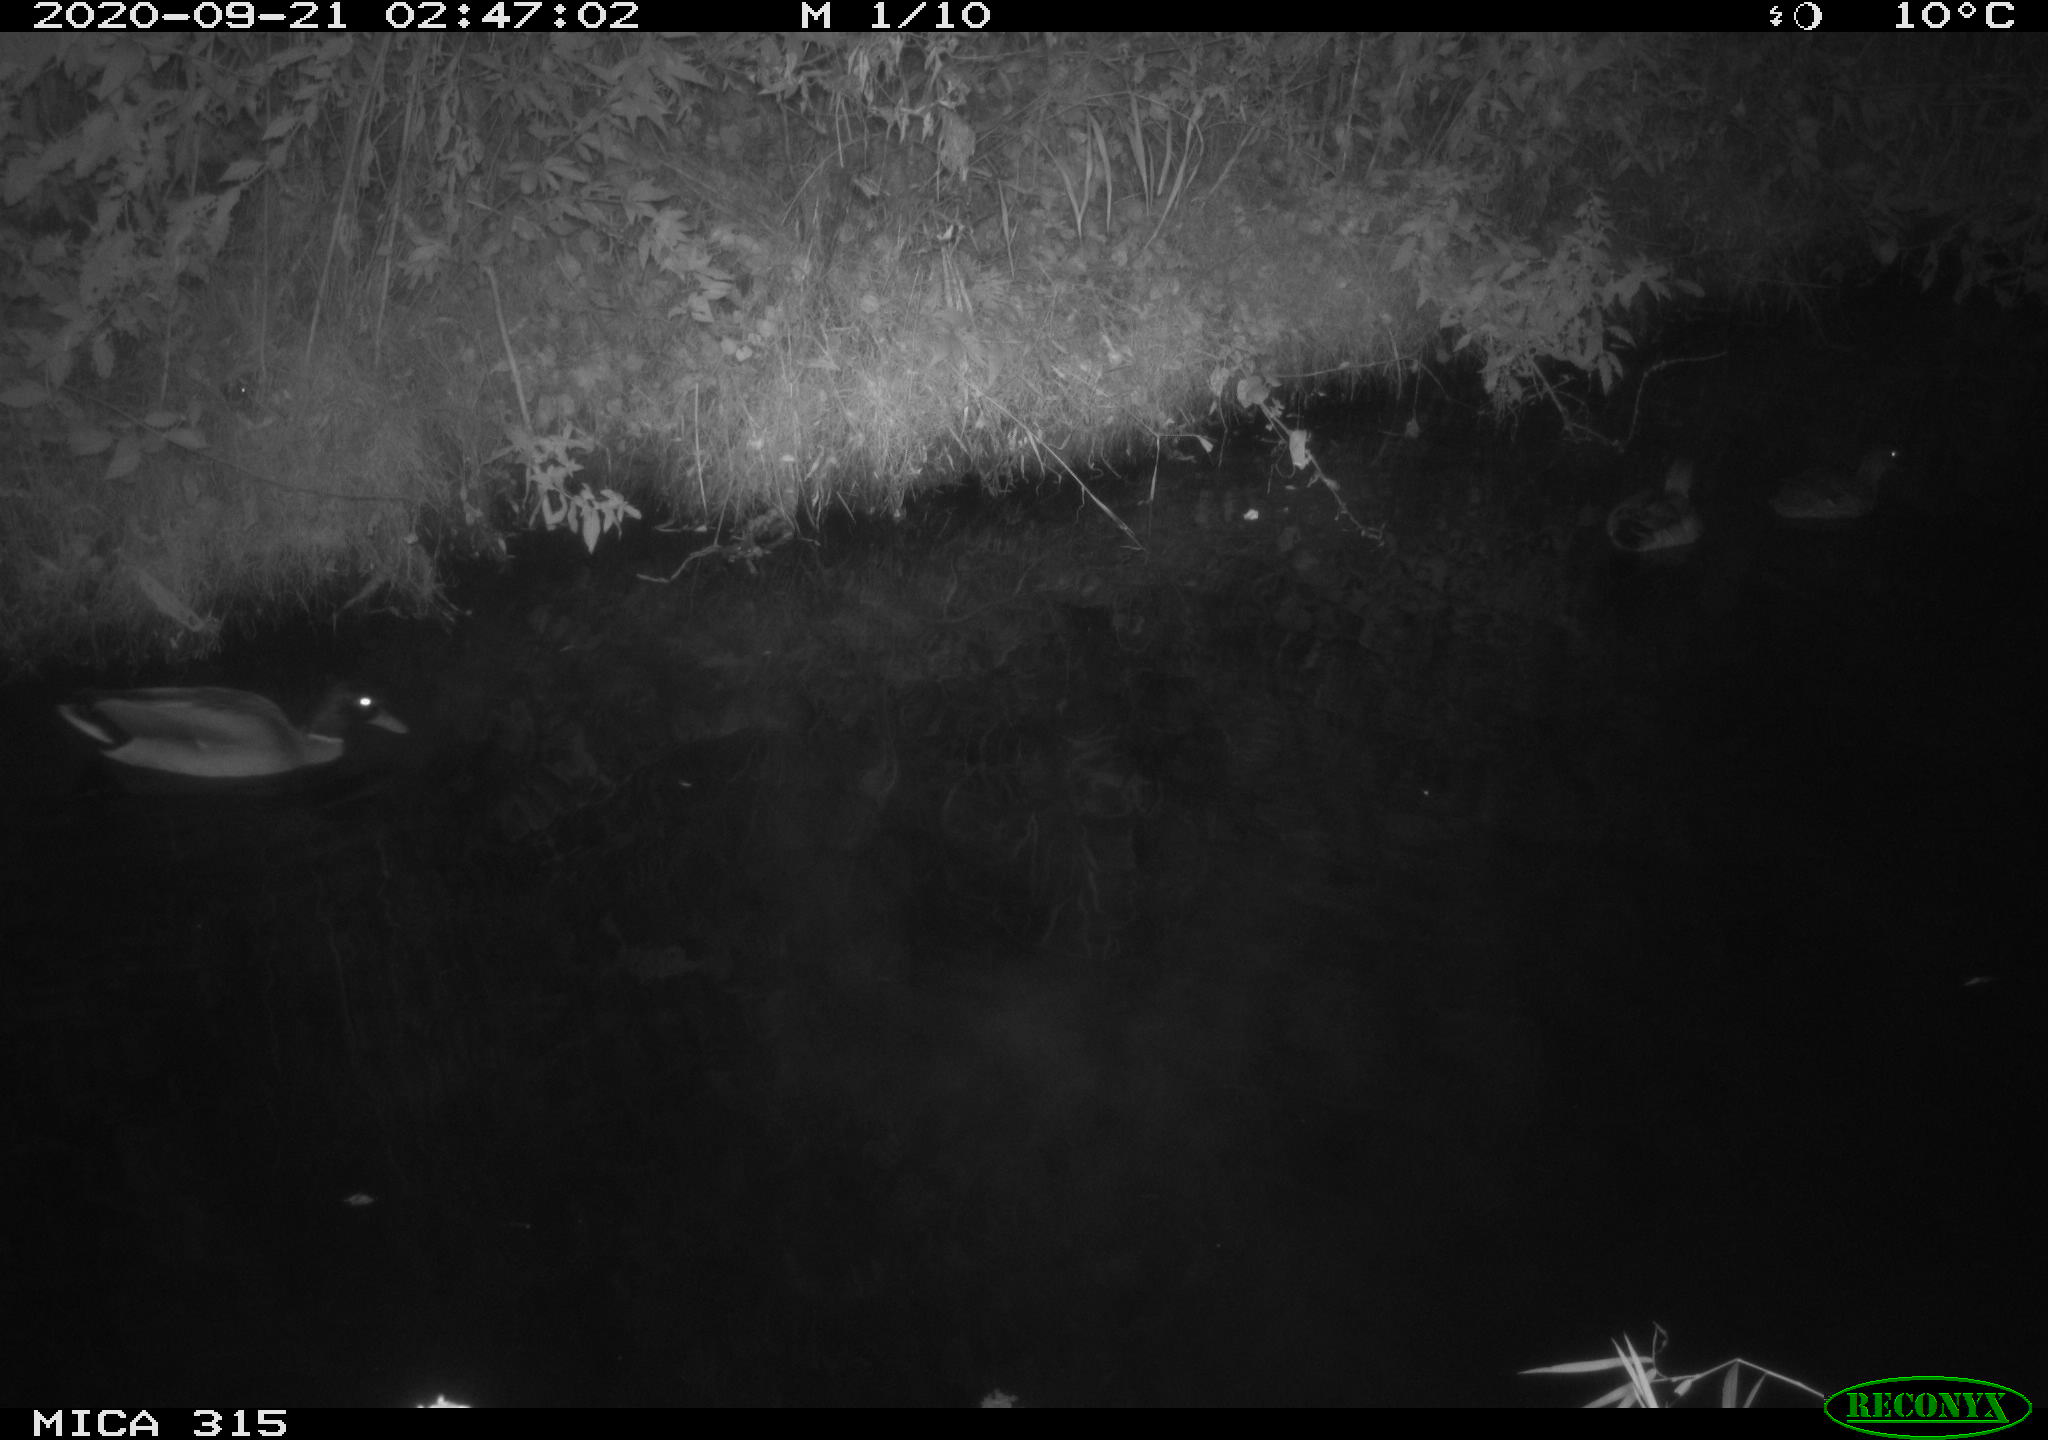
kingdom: Animalia
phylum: Chordata
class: Aves
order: Anseriformes
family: Anatidae
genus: Anas
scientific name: Anas platyrhynchos
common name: Mallard
